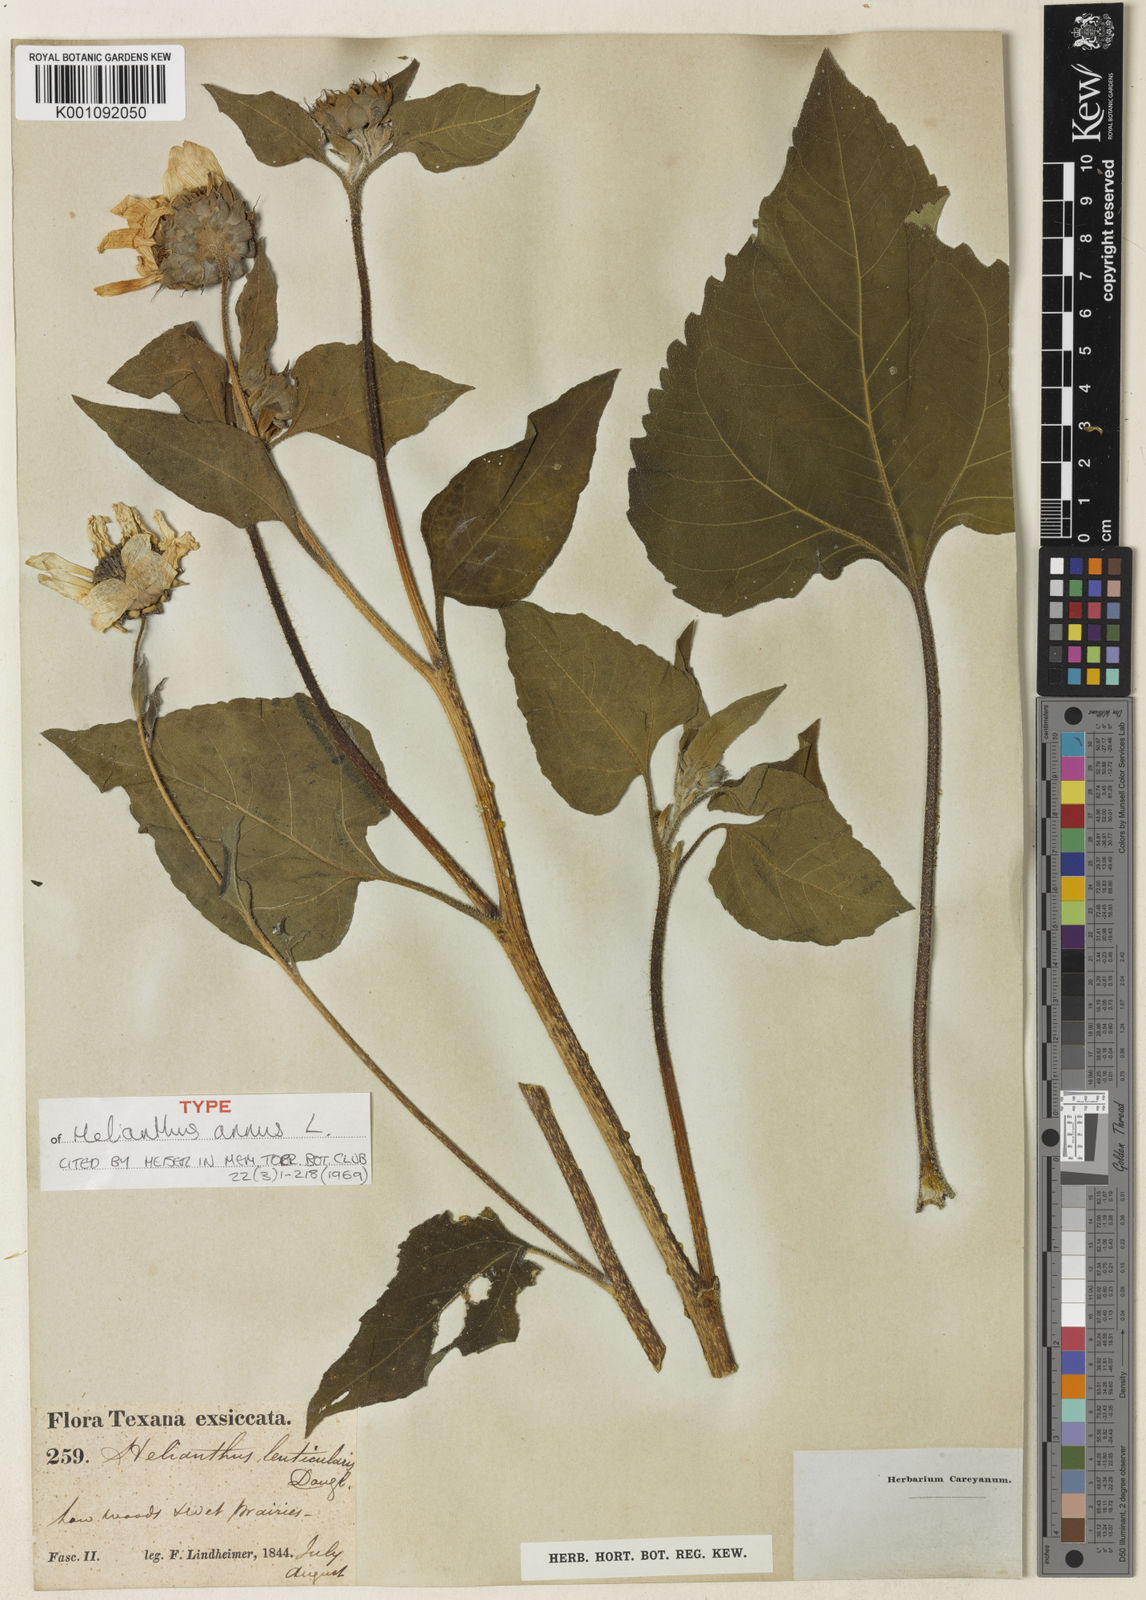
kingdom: Plantae
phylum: Tracheophyta
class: Magnoliopsida
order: Asterales
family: Asteraceae
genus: Helianthus
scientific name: Helianthus annuus
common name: Sunflower
